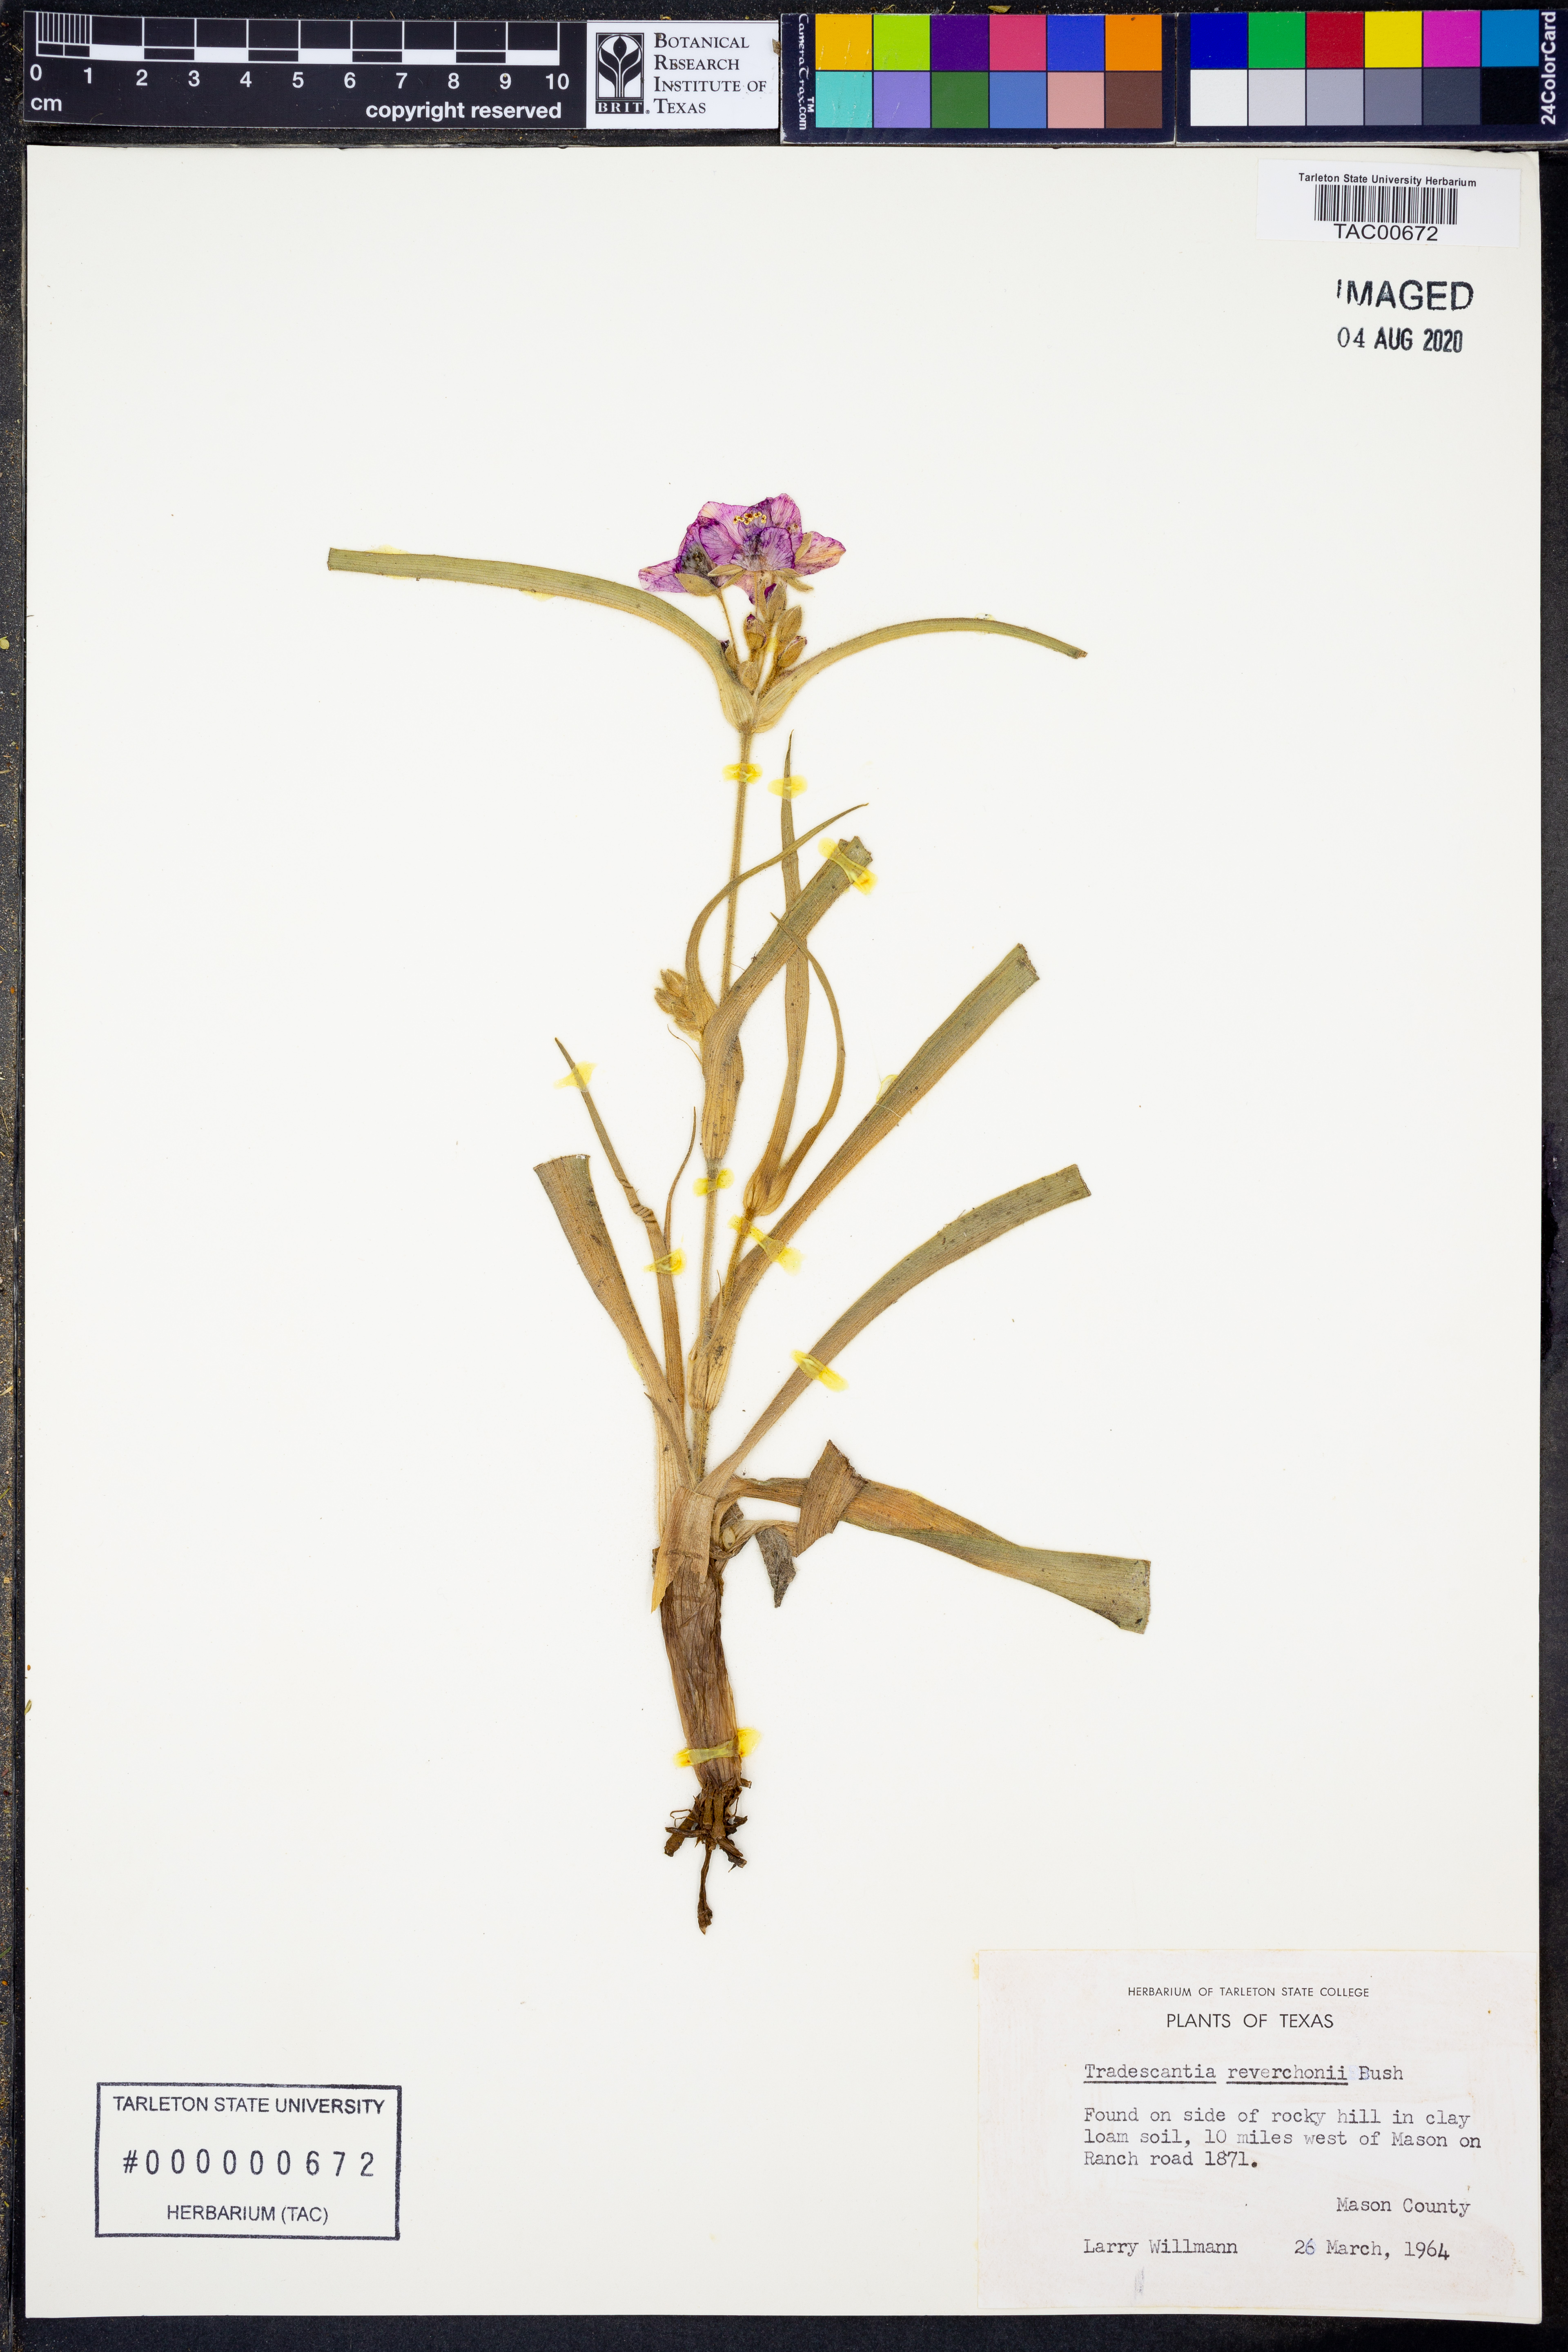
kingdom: Plantae
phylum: Tracheophyta
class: Liliopsida
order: Commelinales
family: Commelinaceae
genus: Tradescantia
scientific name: Tradescantia reverchonii
